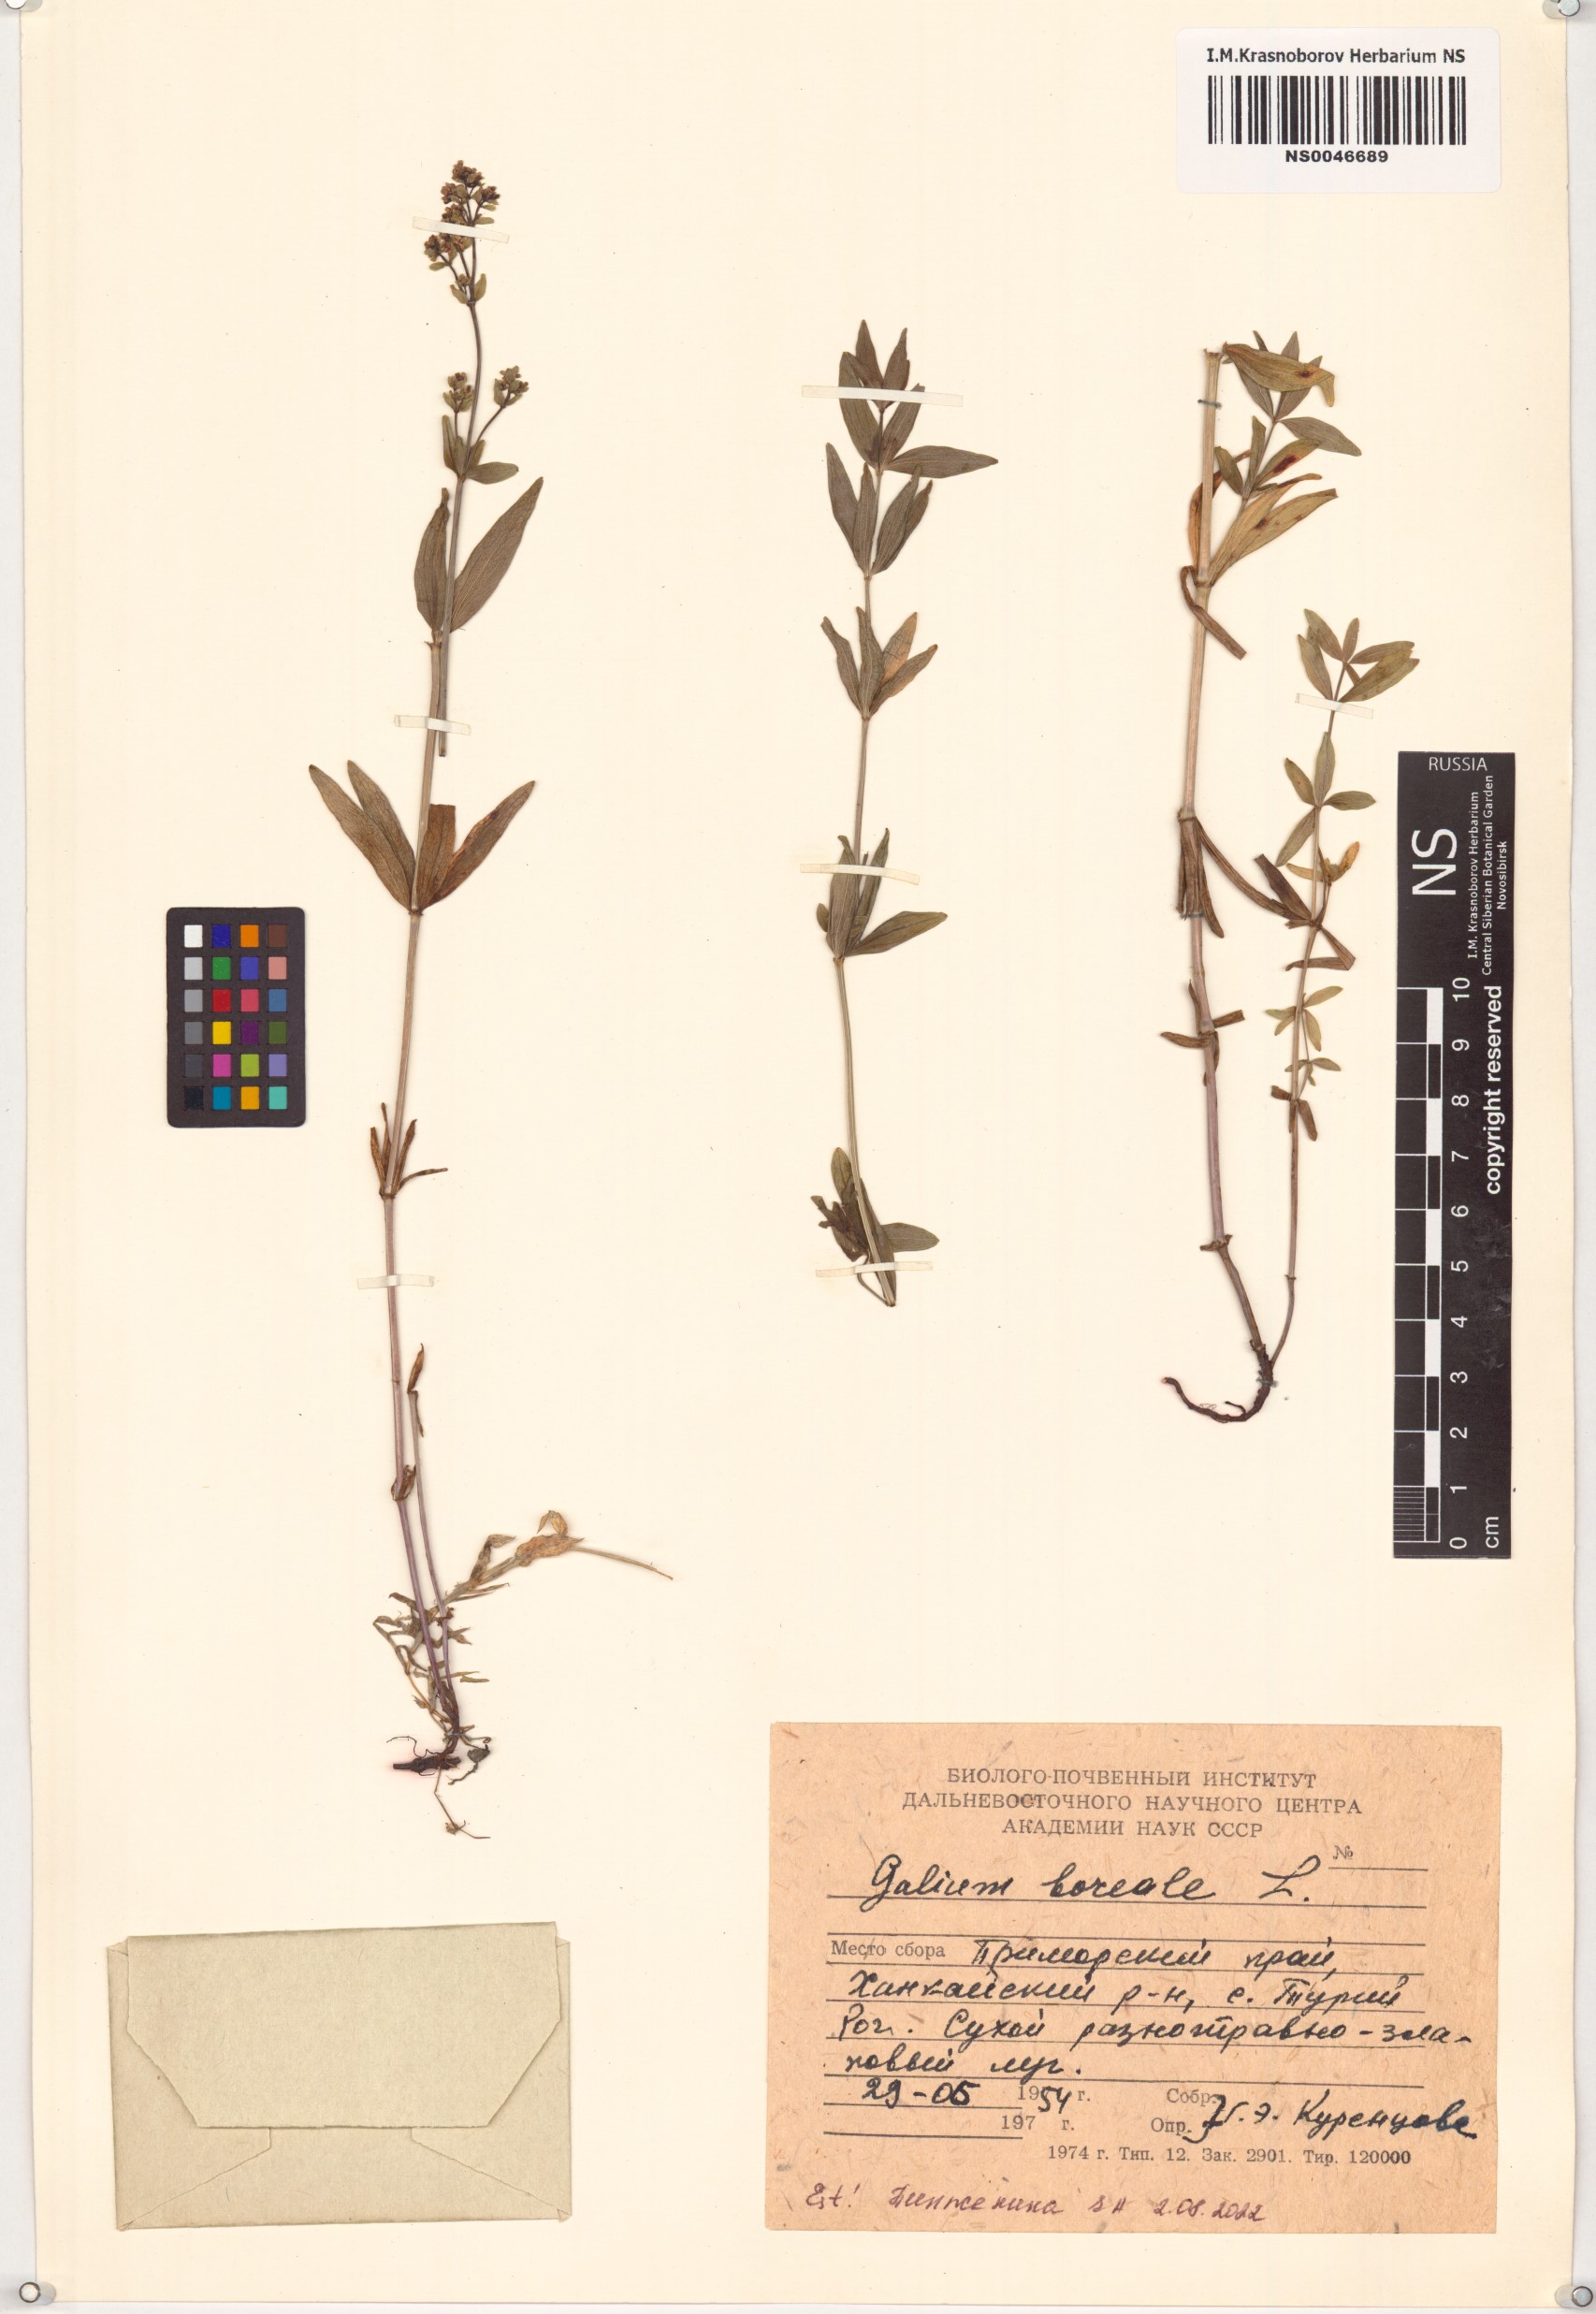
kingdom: Plantae
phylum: Tracheophyta
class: Magnoliopsida
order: Gentianales
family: Rubiaceae
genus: Galium
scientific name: Galium boreale
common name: Northern bedstraw
